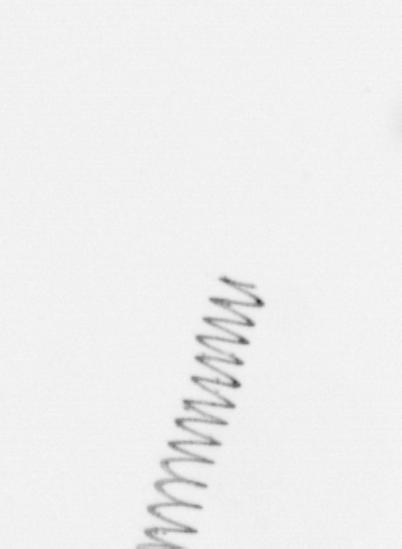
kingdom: Chromista
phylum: Ochrophyta
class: Bacillariophyceae
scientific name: Bacillariophyceae
